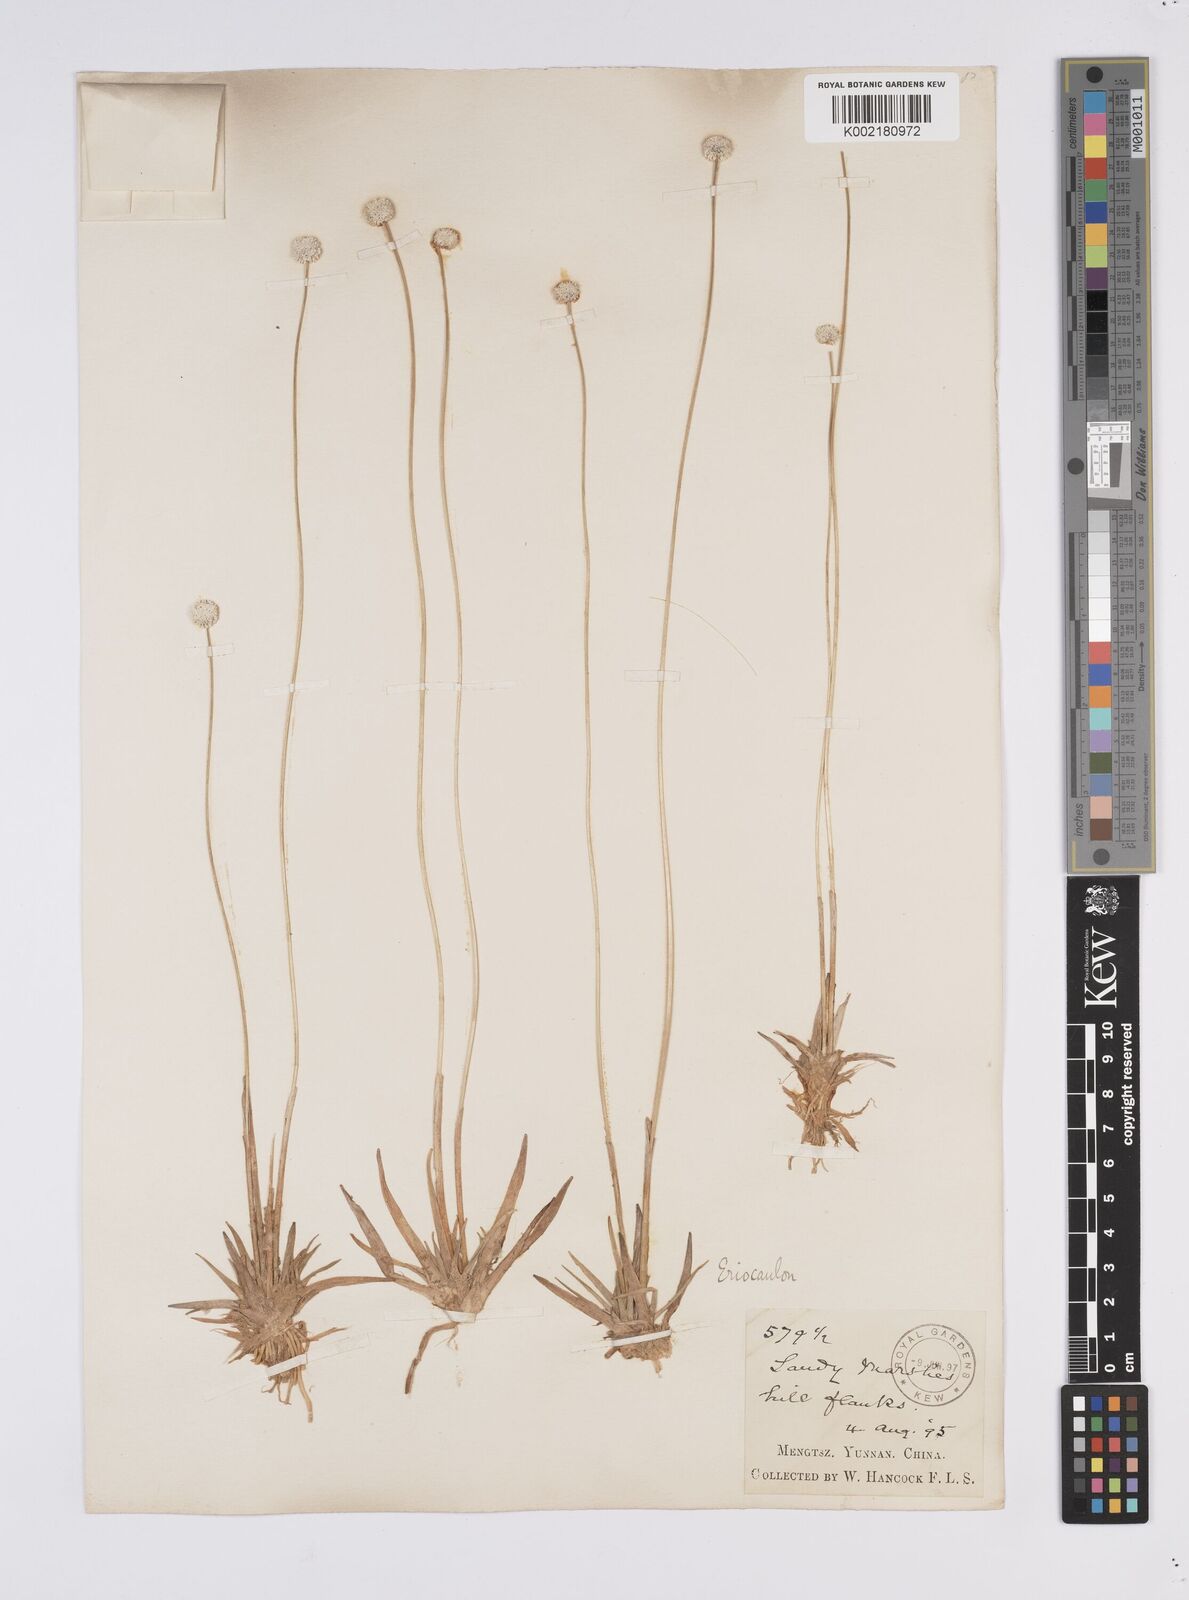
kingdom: Plantae
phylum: Tracheophyta
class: Liliopsida
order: Poales
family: Eriocaulaceae
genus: Eriocaulon
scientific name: Eriocaulon henryanum
